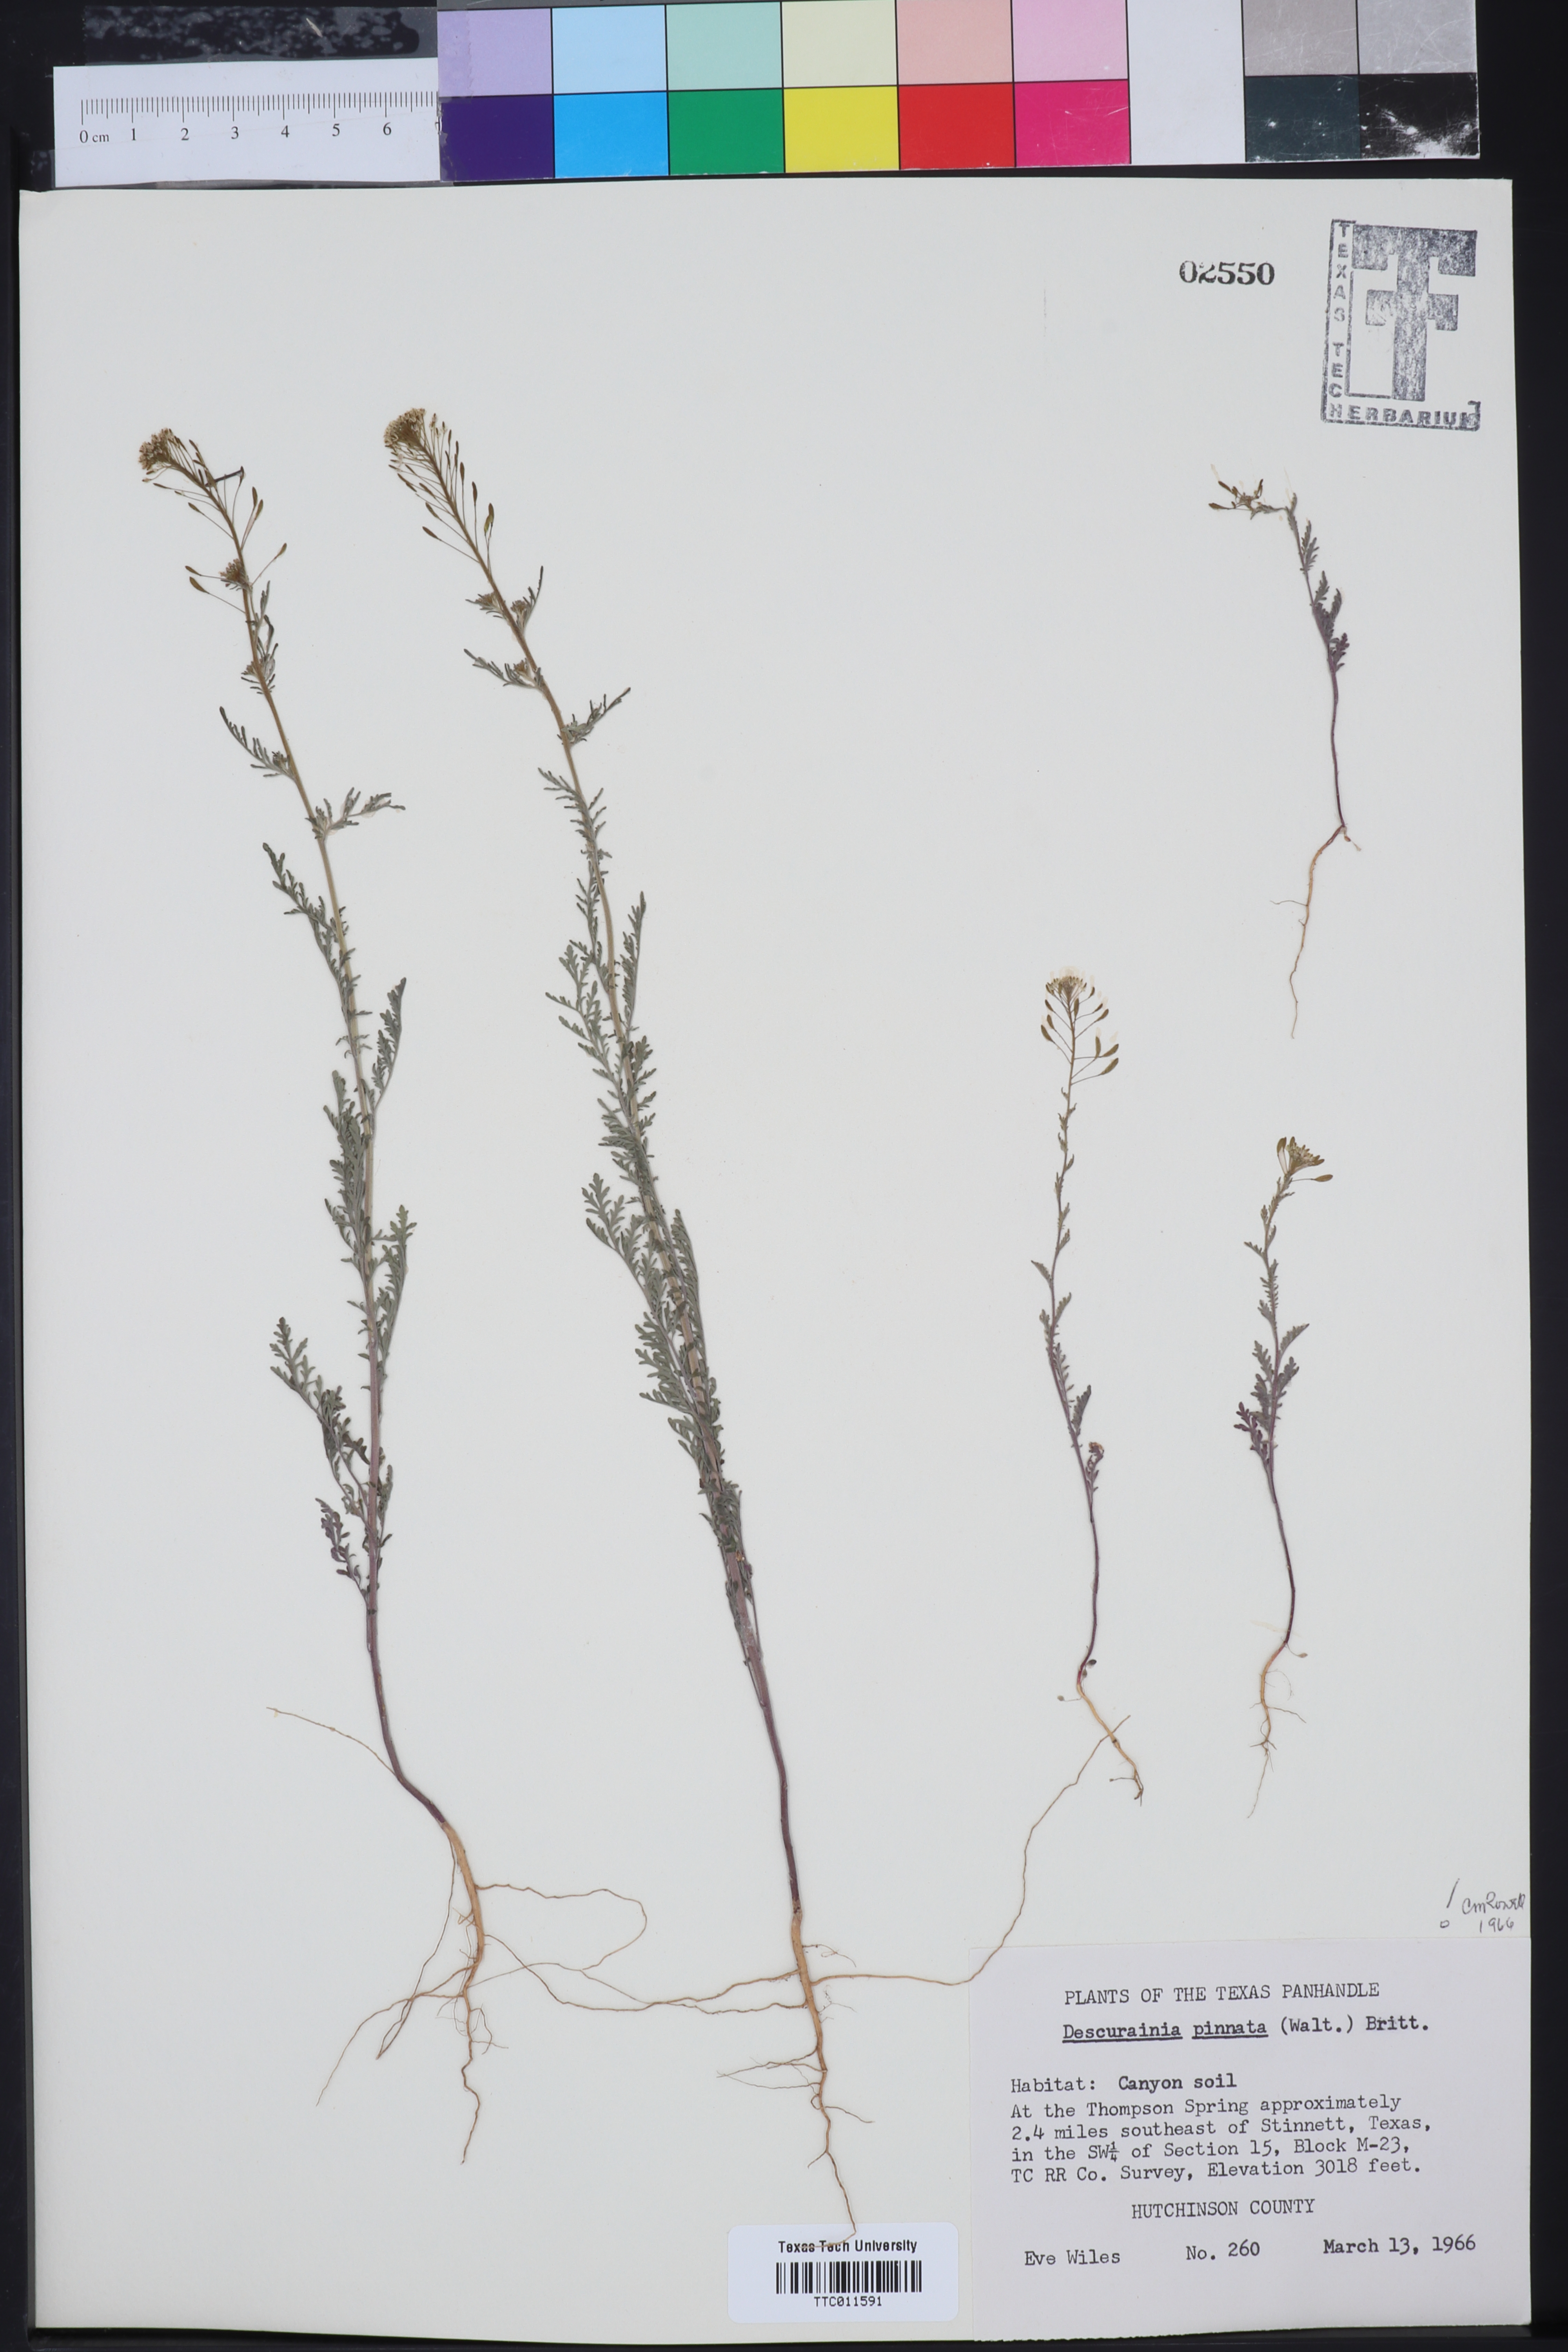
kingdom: Plantae
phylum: Tracheophyta
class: Magnoliopsida
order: Brassicales
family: Brassicaceae
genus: Descurainia
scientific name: Descurainia pinnata
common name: Western tansy mustard
